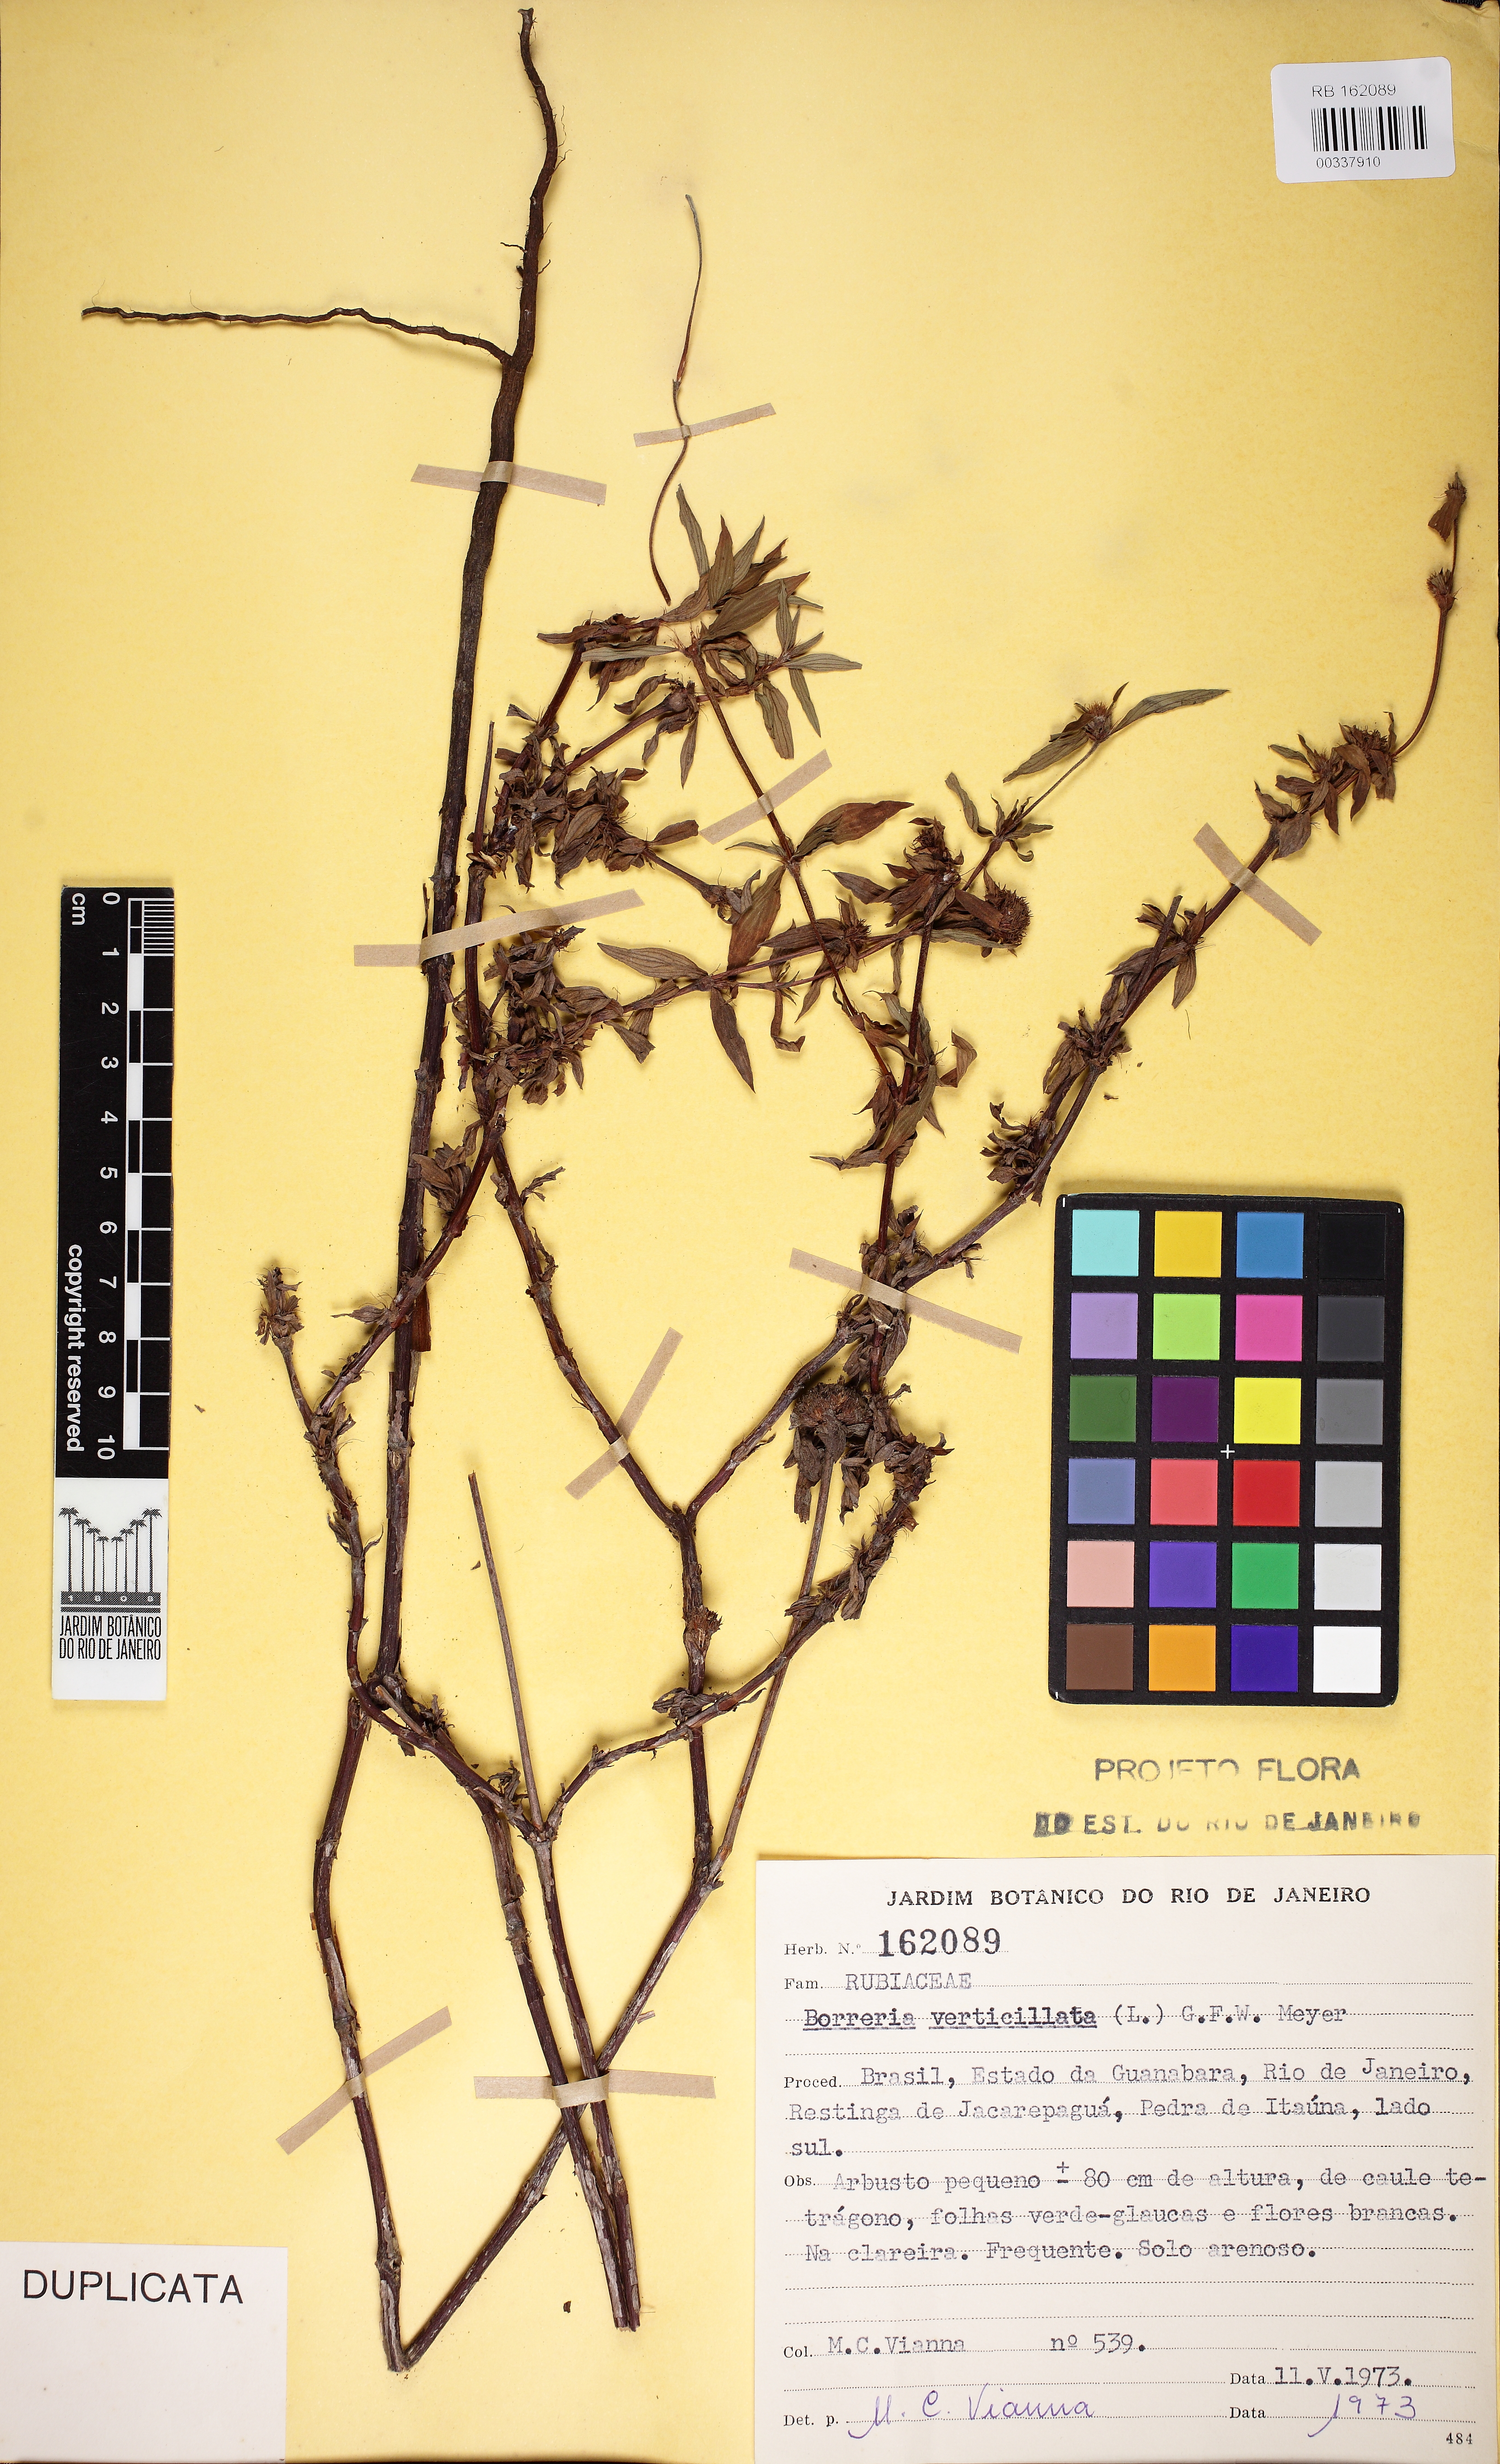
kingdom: Plantae
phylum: Tracheophyta
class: Magnoliopsida
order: Gentianales
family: Rubiaceae
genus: Spermacoce
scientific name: Spermacoce capitata
